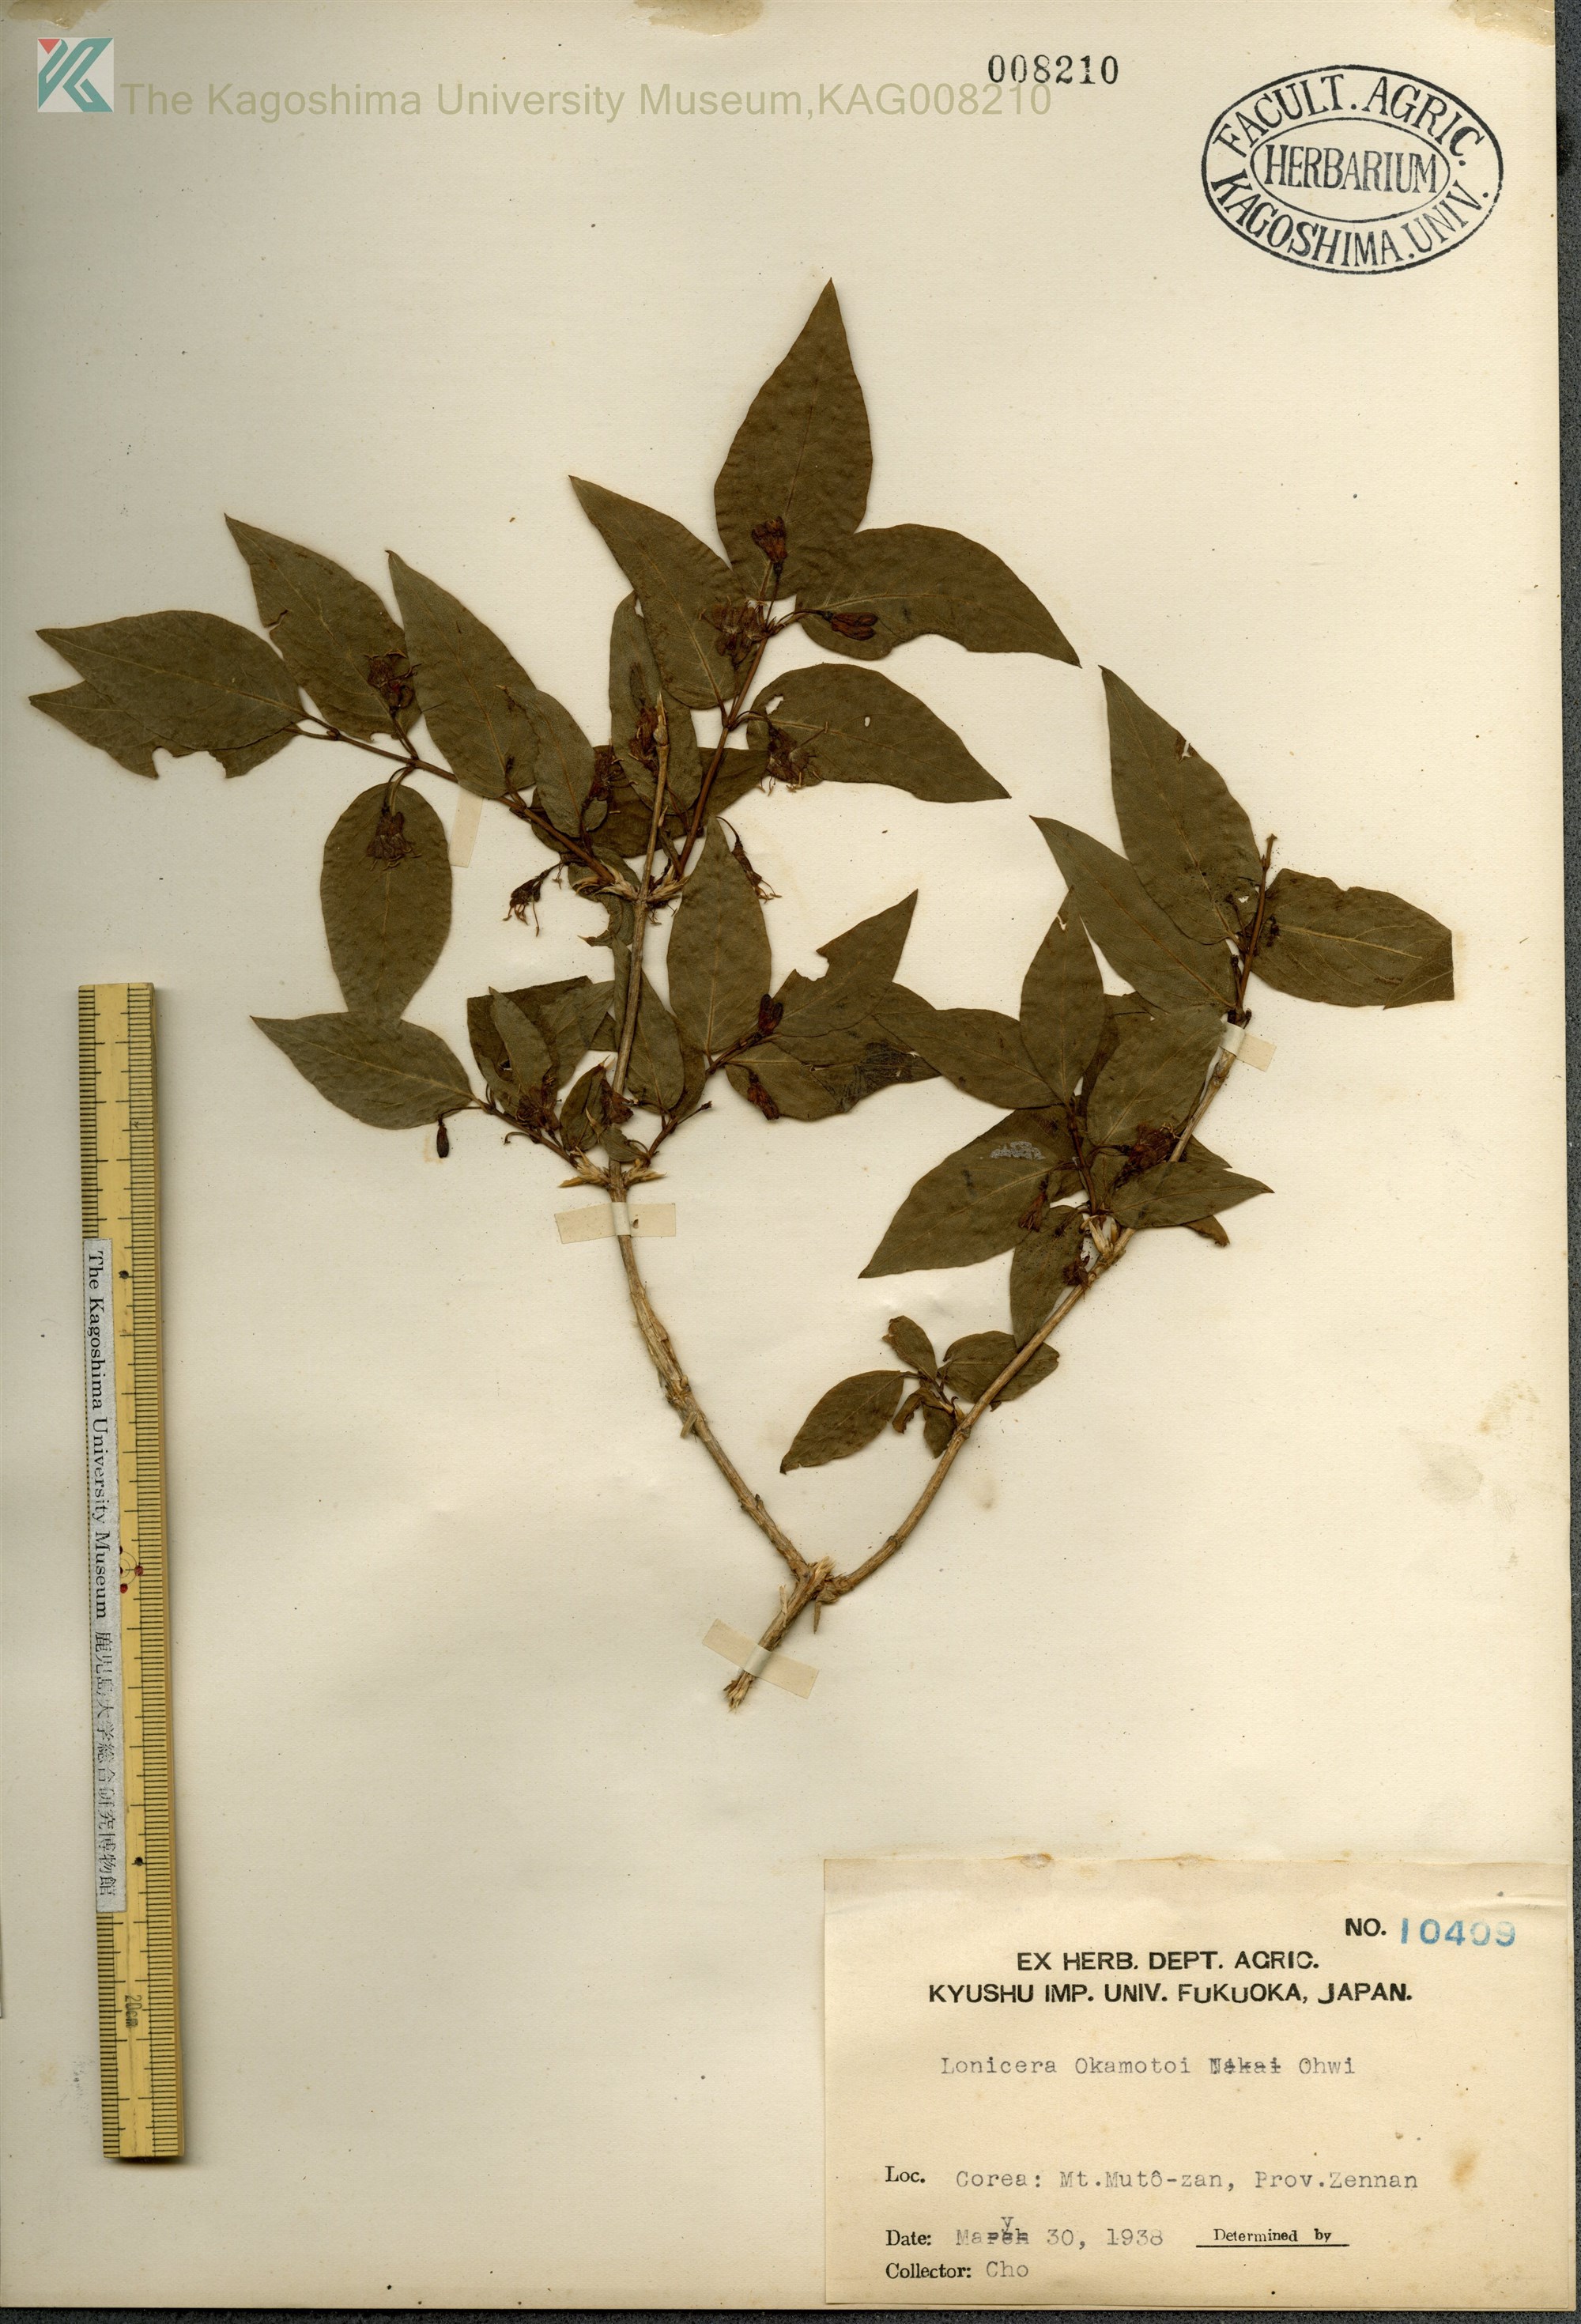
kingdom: Plantae
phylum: Tracheophyta
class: Magnoliopsida
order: Dipsacales
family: Caprifoliaceae
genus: Lonicera
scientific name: Lonicera
